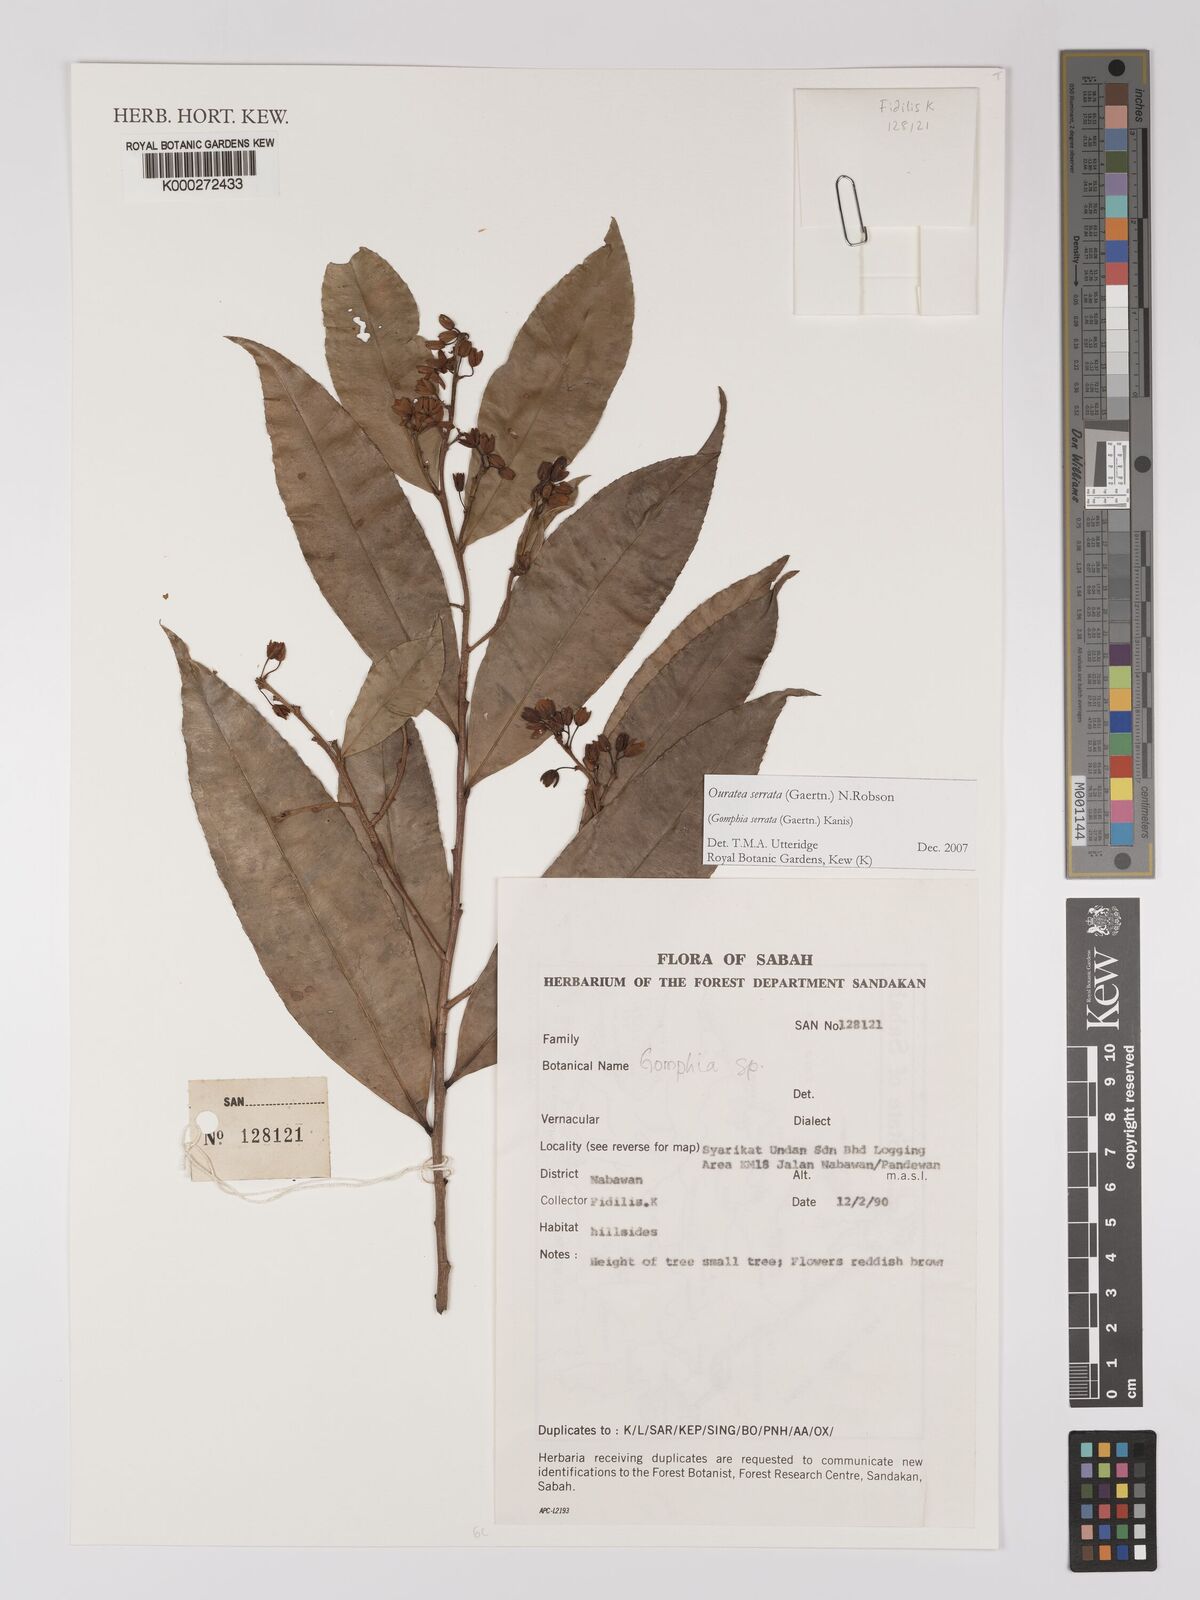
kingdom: Plantae
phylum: Tracheophyta
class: Magnoliopsida
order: Malpighiales
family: Ochnaceae
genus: Gomphia
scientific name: Gomphia serrata
